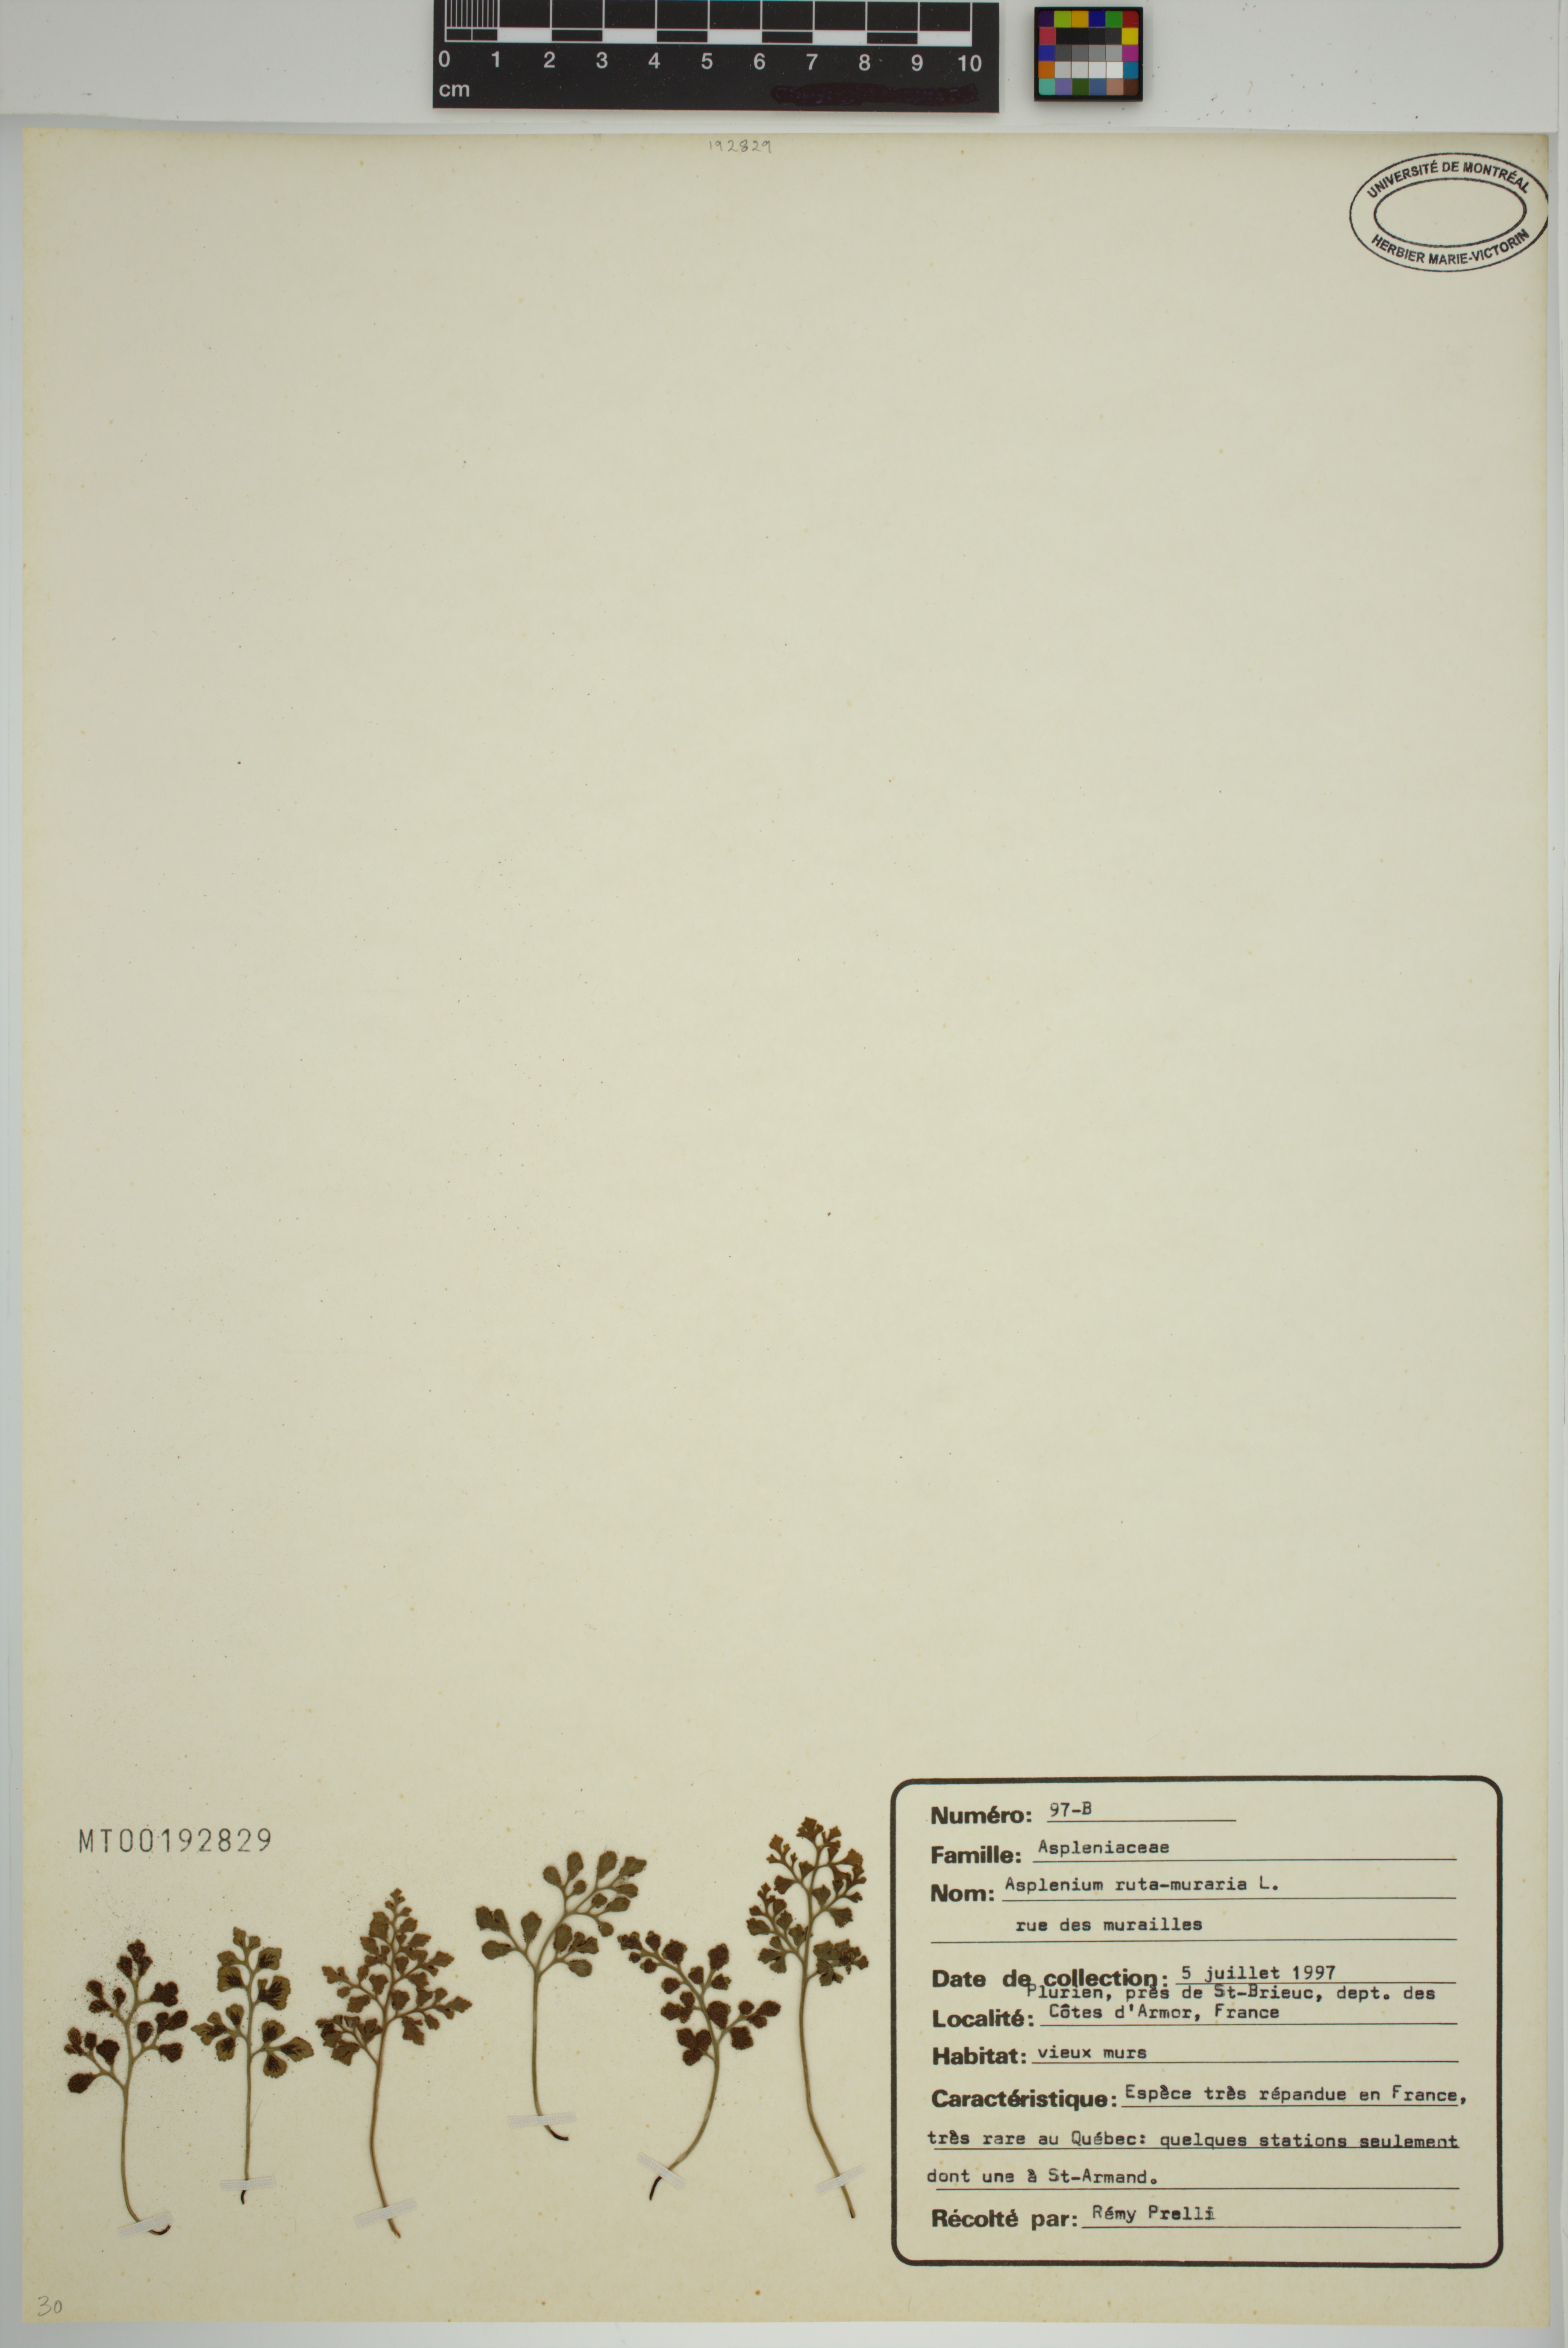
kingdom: Plantae
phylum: Tracheophyta
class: Polypodiopsida
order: Polypodiales
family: Aspleniaceae
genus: Asplenium
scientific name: Asplenium ruta-muraria
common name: Wall-rue
